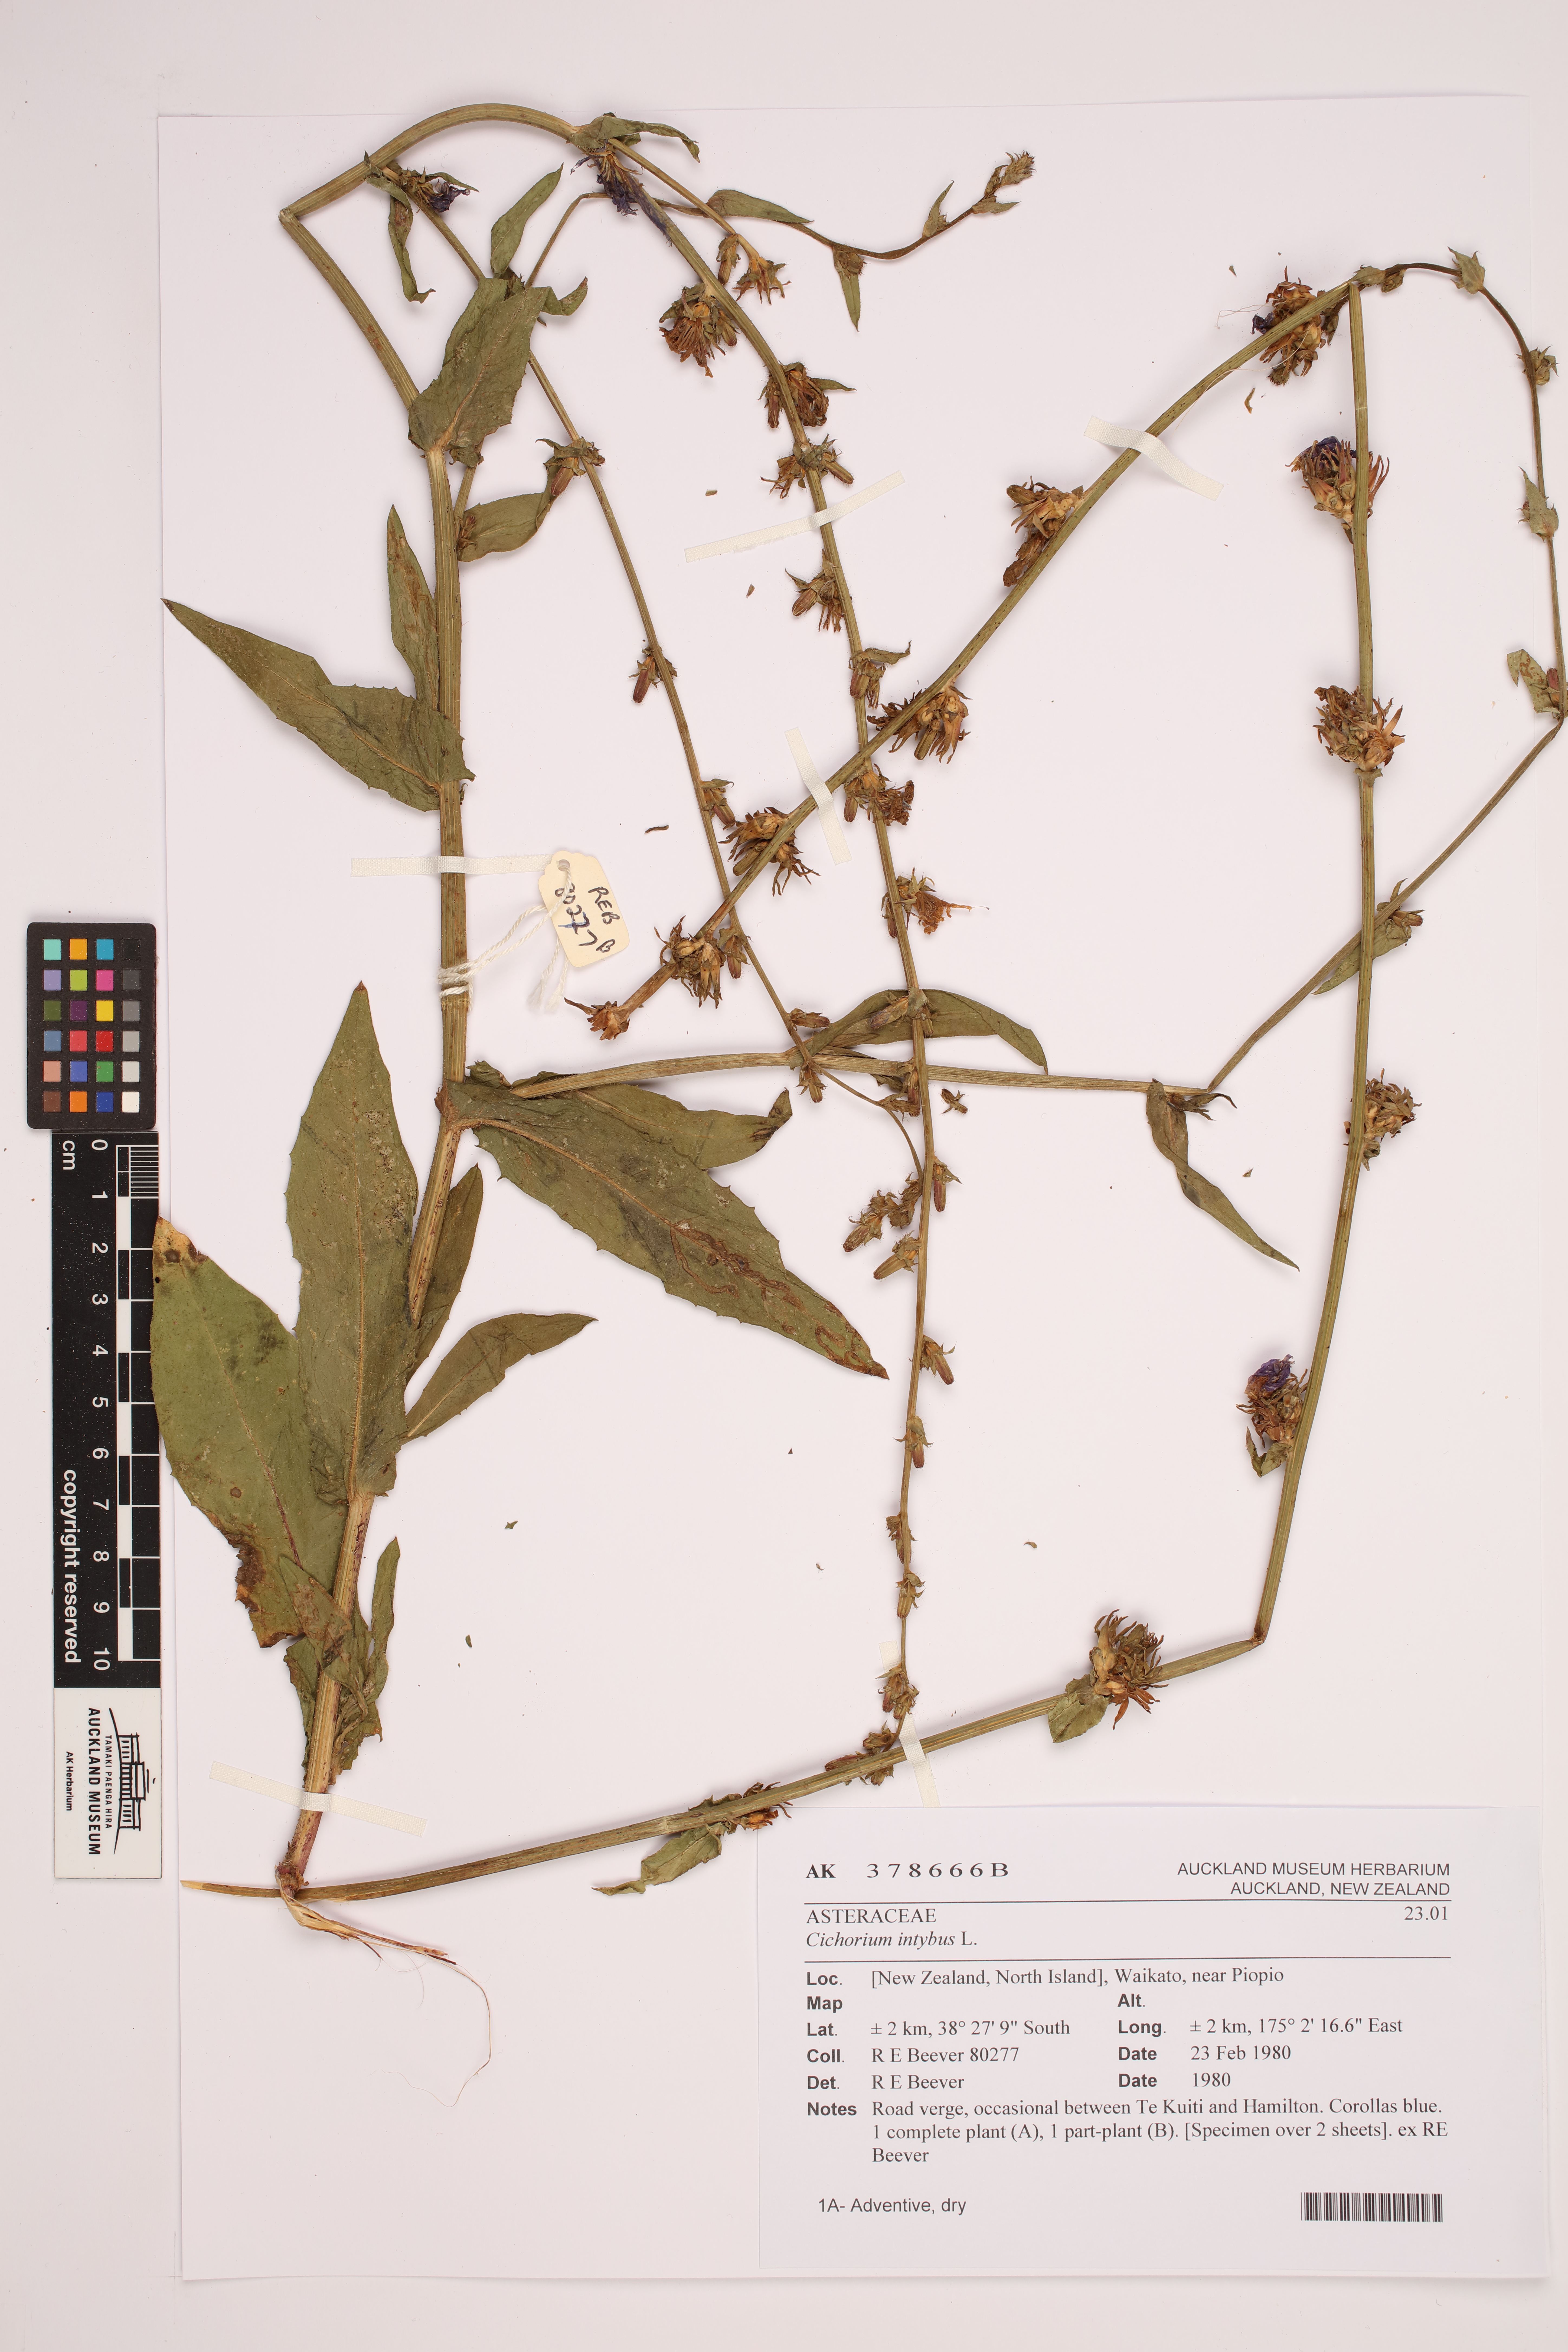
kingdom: Plantae
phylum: Tracheophyta
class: Magnoliopsida
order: Asterales
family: Asteraceae
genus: Cichorium
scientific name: Cichorium intybus
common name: Chicory
